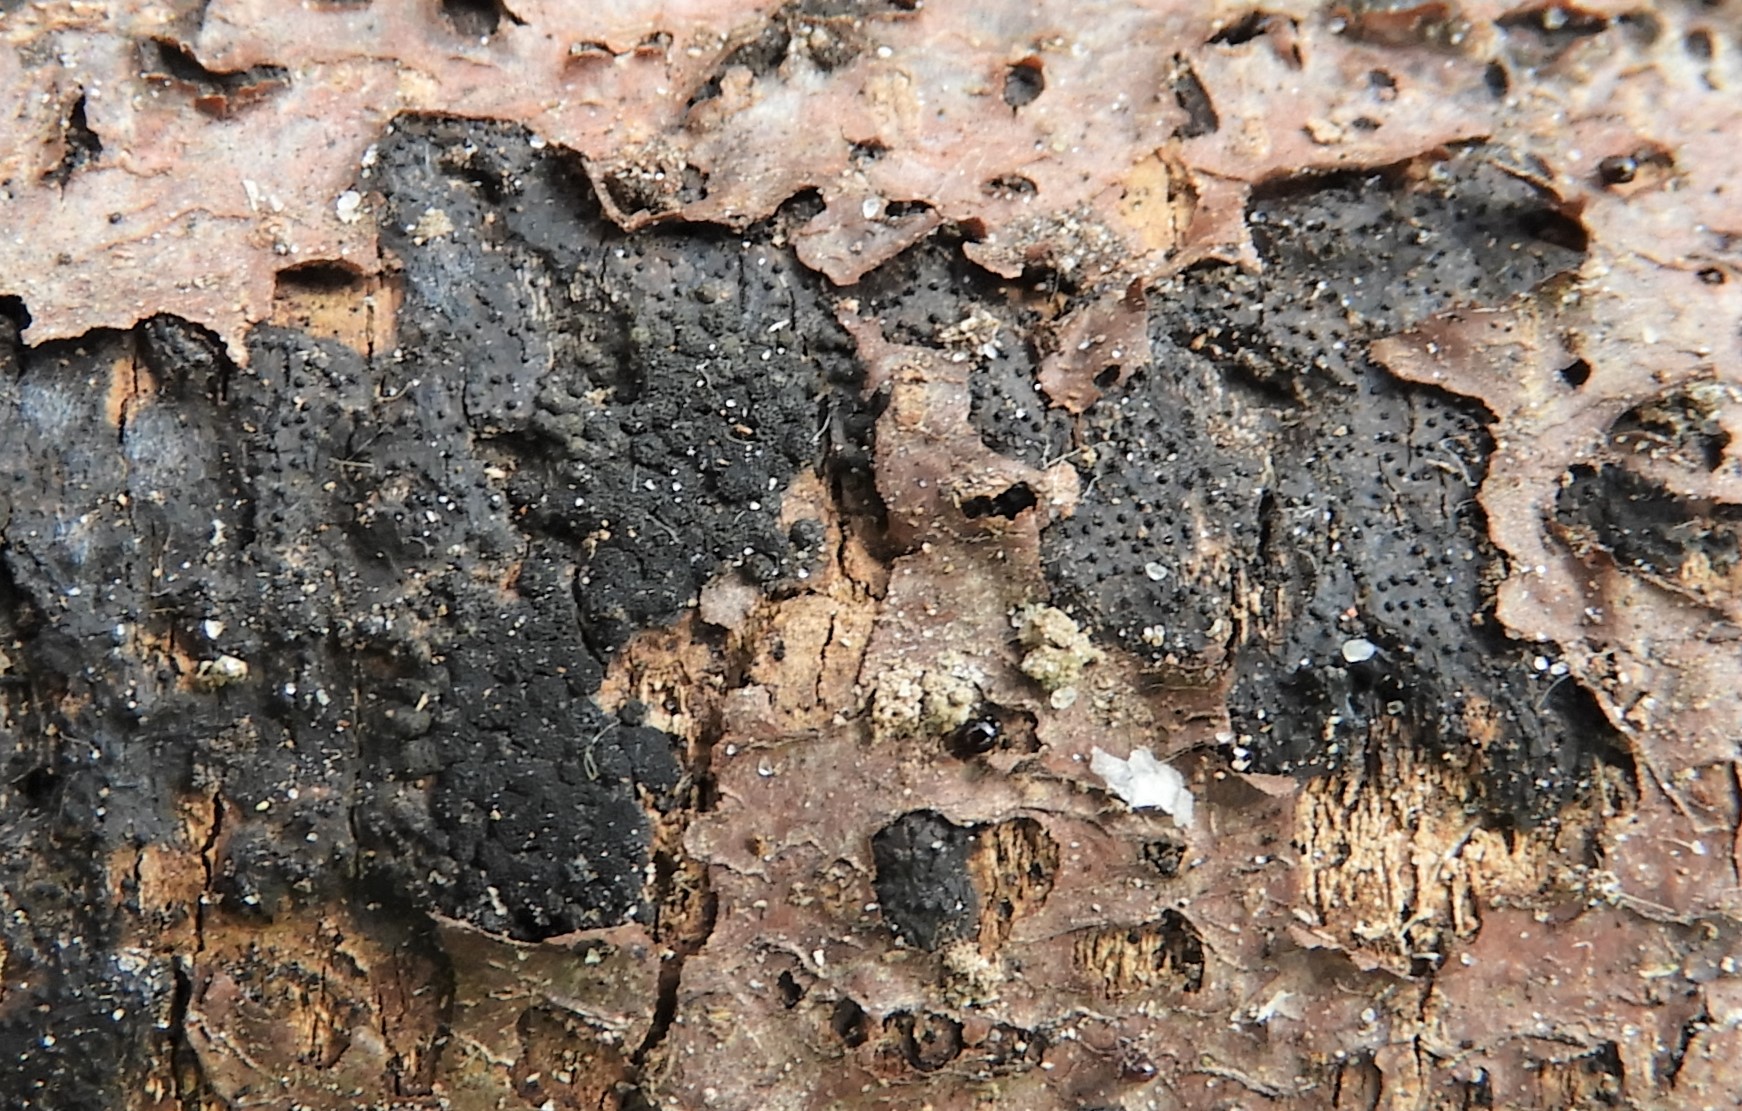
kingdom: Fungi
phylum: Ascomycota
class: Eurotiomycetes
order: Chaetothyriales
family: Herpotrichiellaceae
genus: Capronia
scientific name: Capronia nigerrima
